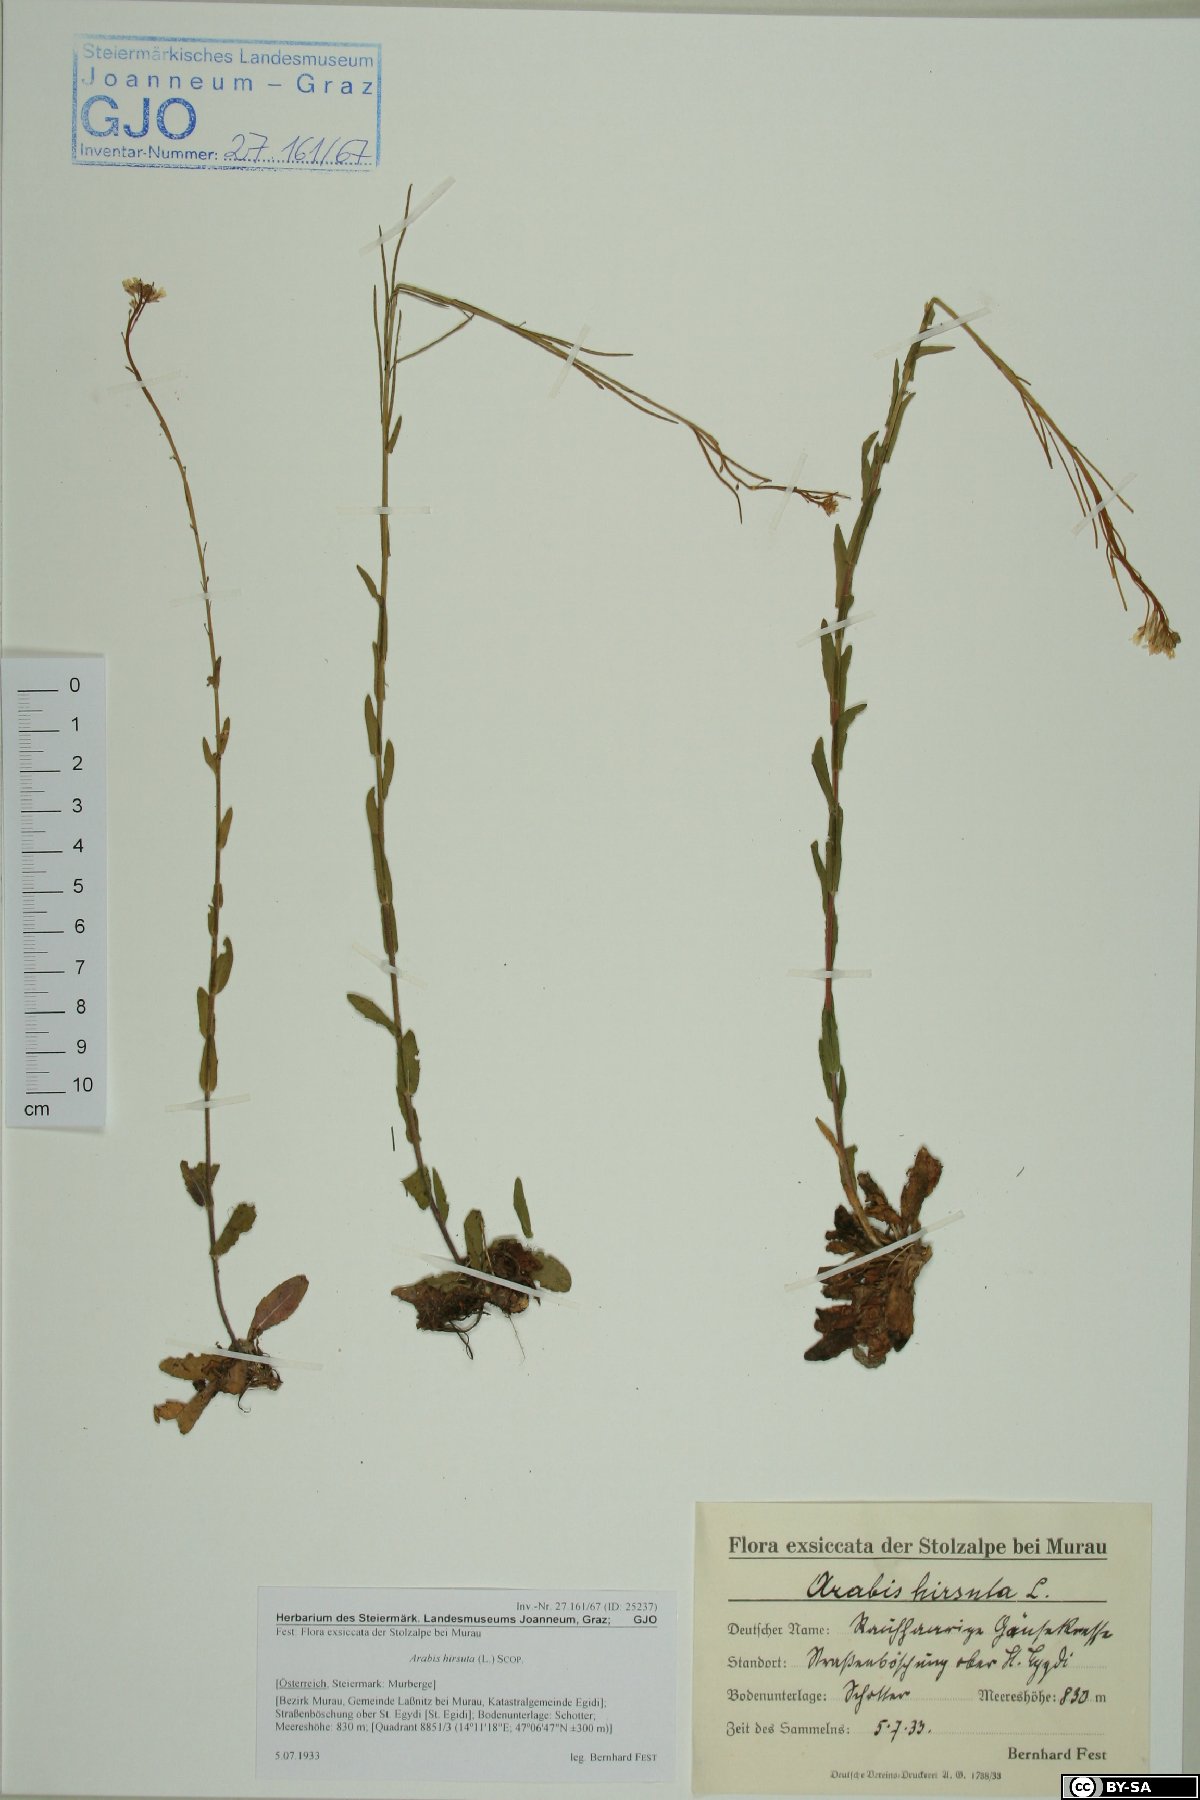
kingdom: Plantae
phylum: Tracheophyta
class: Magnoliopsida
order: Brassicales
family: Brassicaceae
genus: Arabis
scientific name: Arabis hirsuta
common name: Hairy rock-cress
